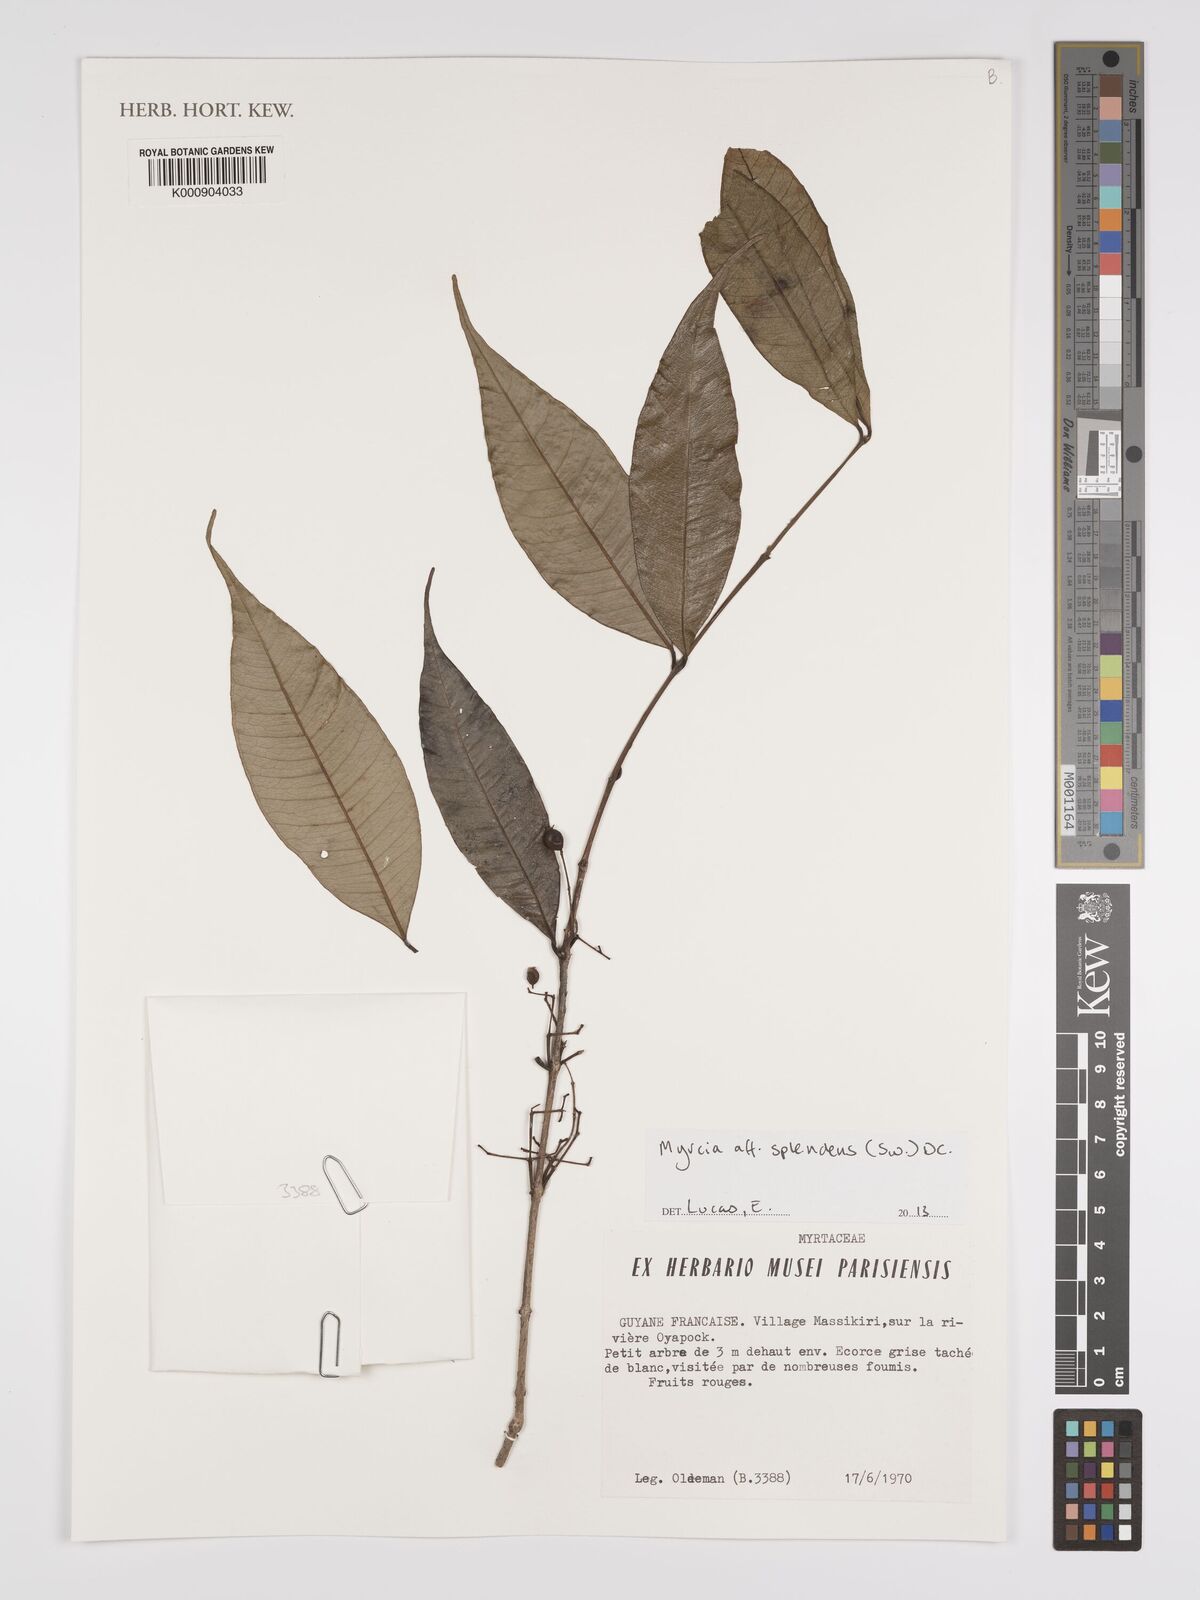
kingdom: Plantae
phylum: Tracheophyta
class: Magnoliopsida
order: Myrtales
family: Myrtaceae
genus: Myrcia
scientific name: Myrcia splendens
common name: Surinam cherry
